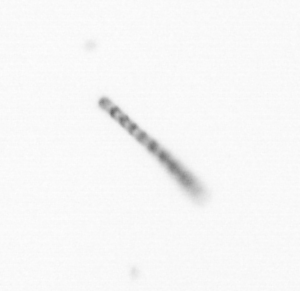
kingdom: Chromista
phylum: Ochrophyta
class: Bacillariophyceae
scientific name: Bacillariophyceae
